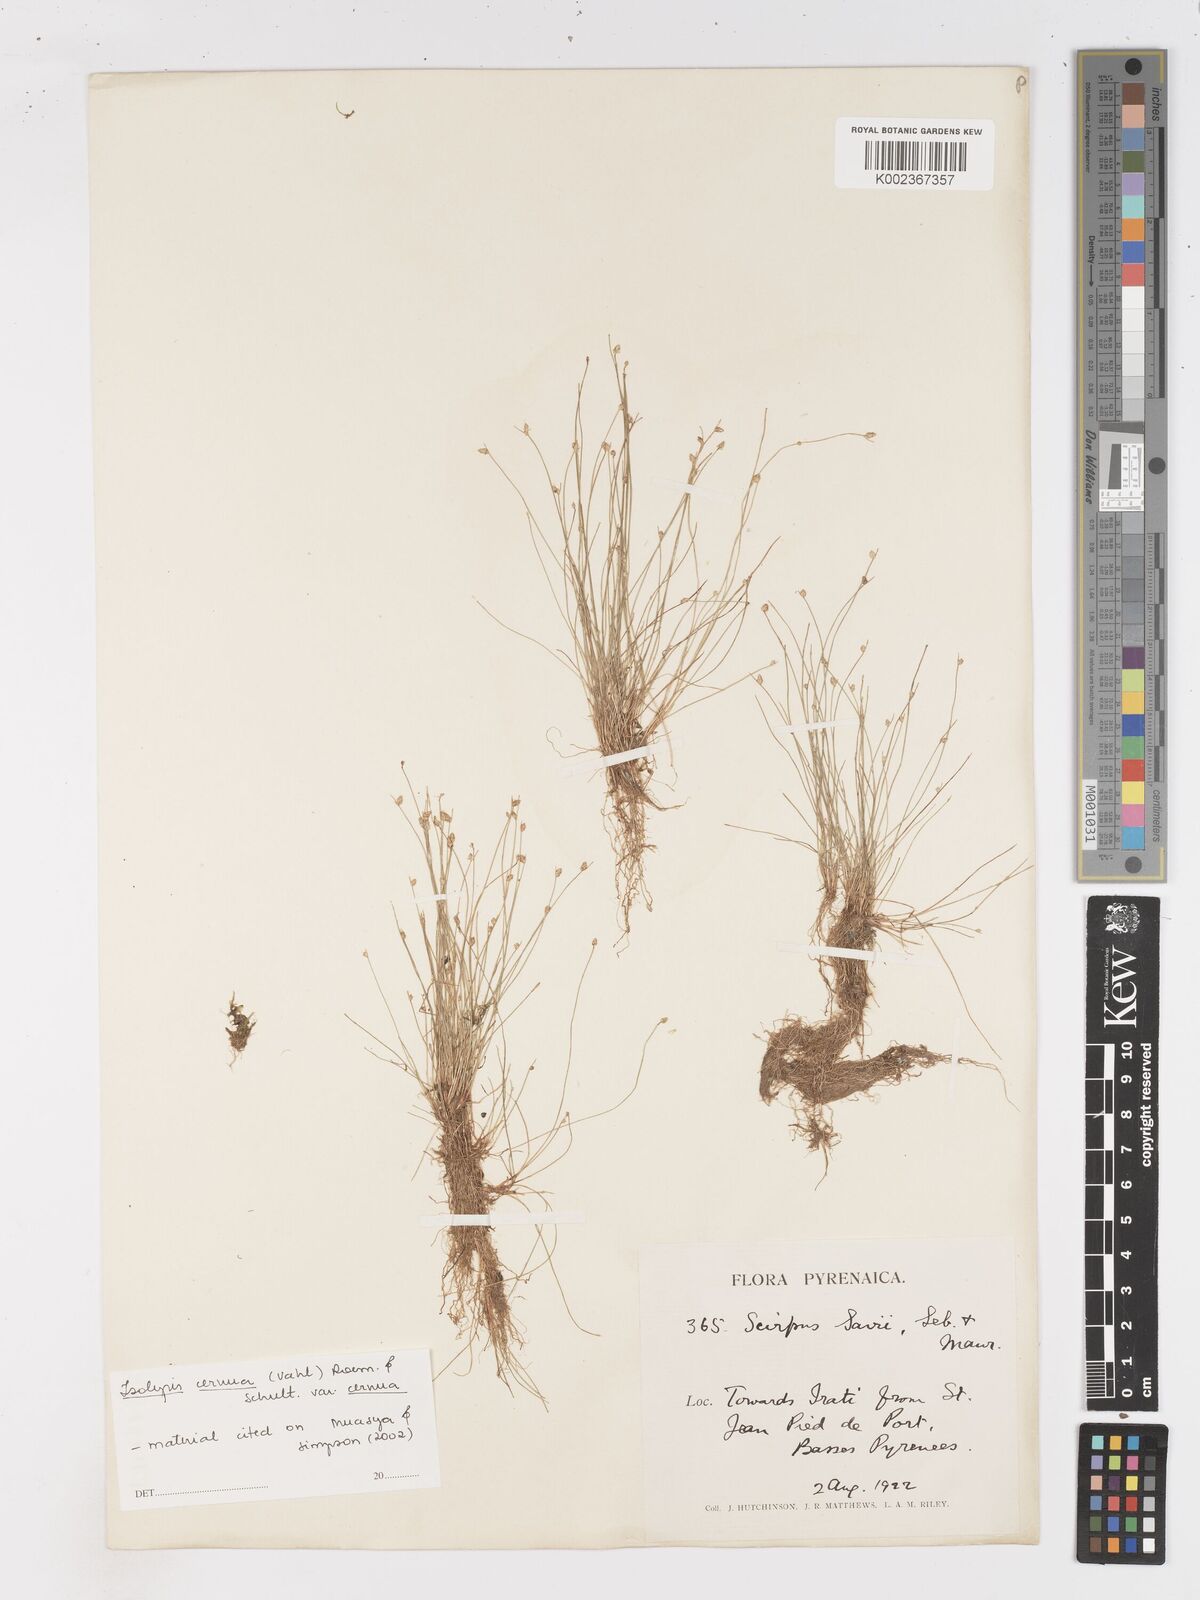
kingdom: Plantae
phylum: Tracheophyta
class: Liliopsida
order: Poales
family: Cyperaceae
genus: Isolepis
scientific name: Isolepis cernua
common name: Slender club-rush
